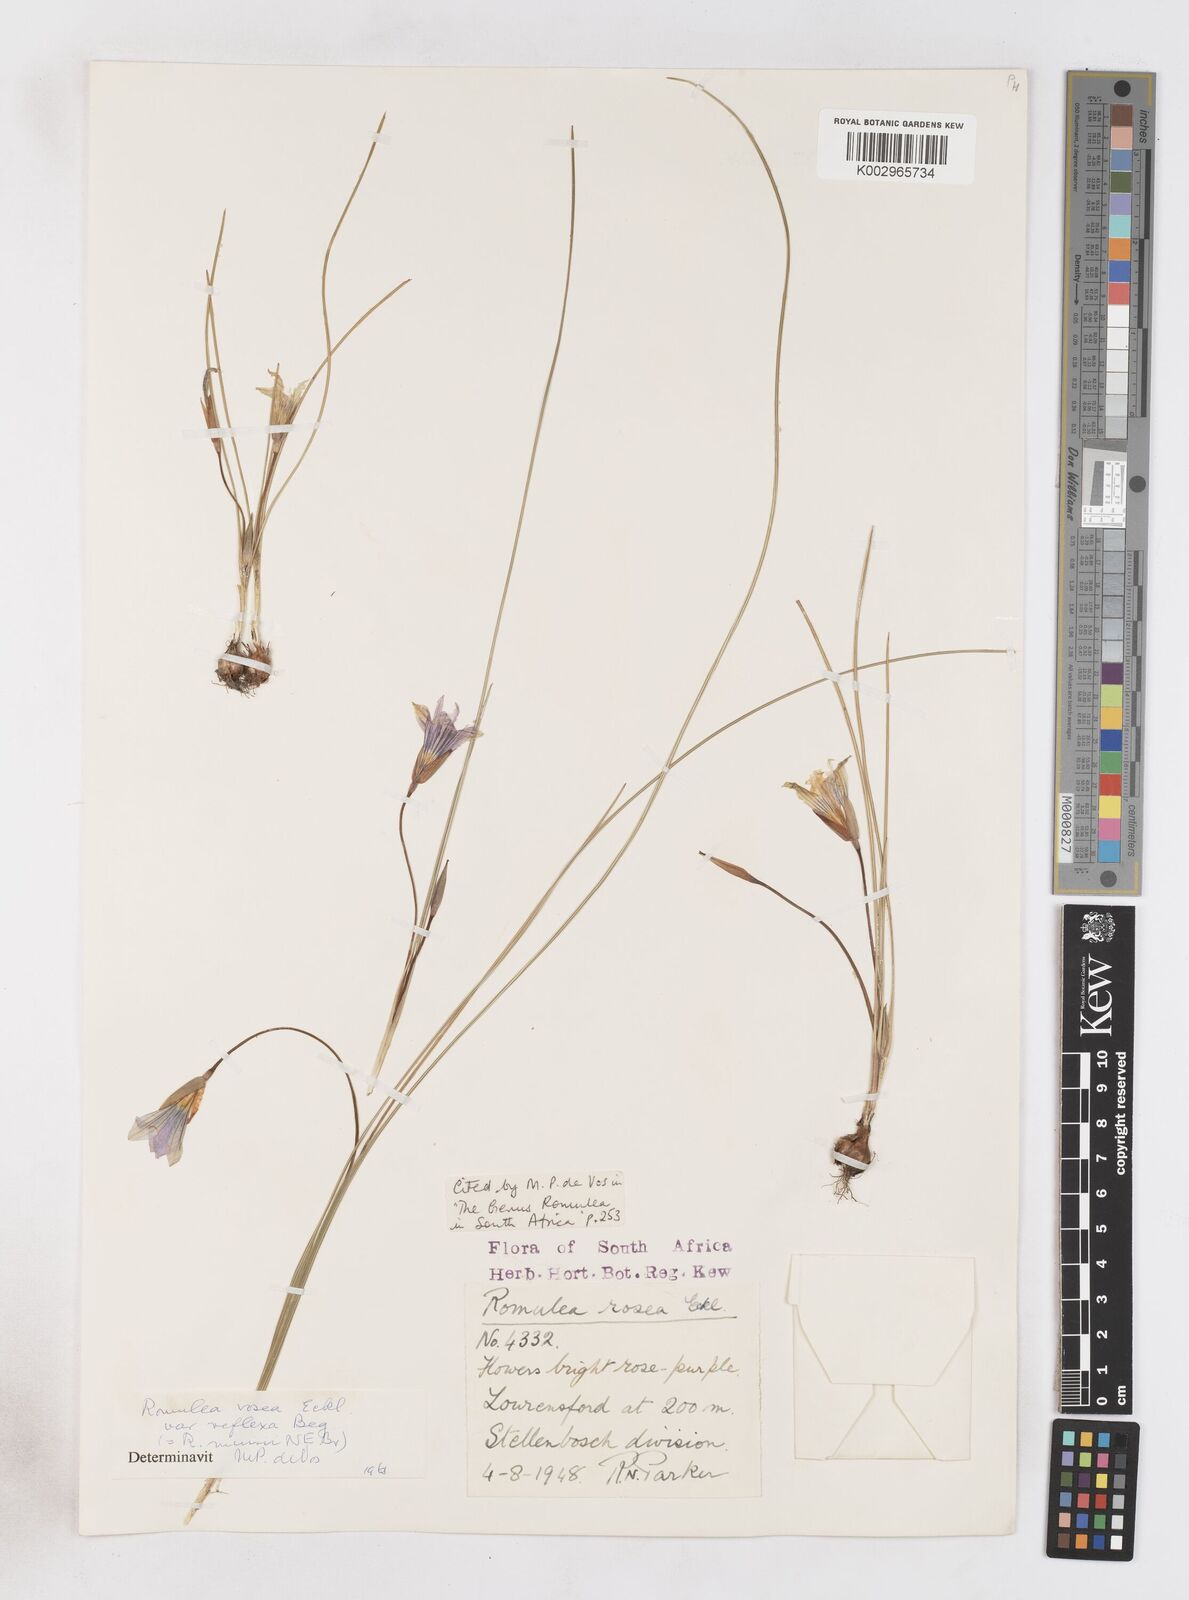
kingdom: Plantae
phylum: Tracheophyta
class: Liliopsida
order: Asparagales
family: Iridaceae
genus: Romulea
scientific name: Romulea rosea
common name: Oniongrass
